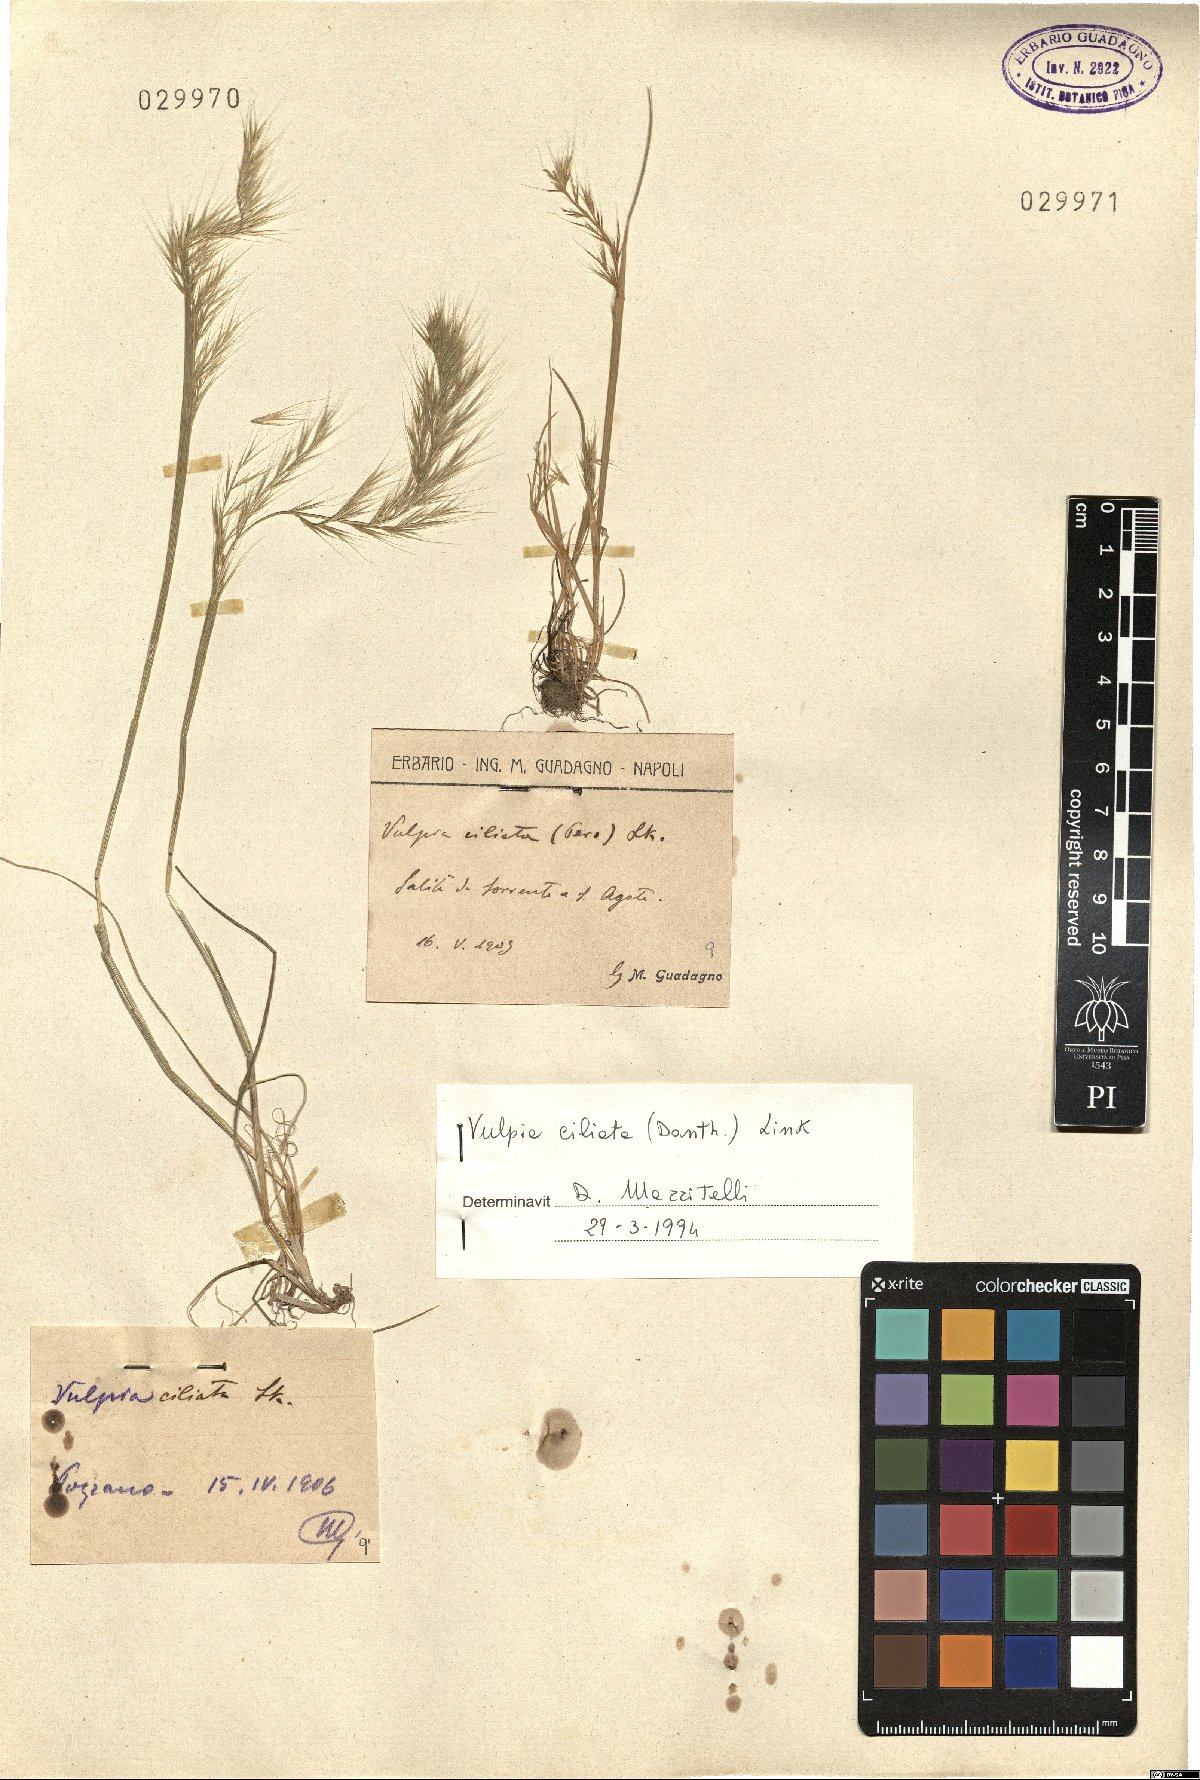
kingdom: Plantae
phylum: Tracheophyta
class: Liliopsida
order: Poales
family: Poaceae
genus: Festuca
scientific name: Festuca ambigua
